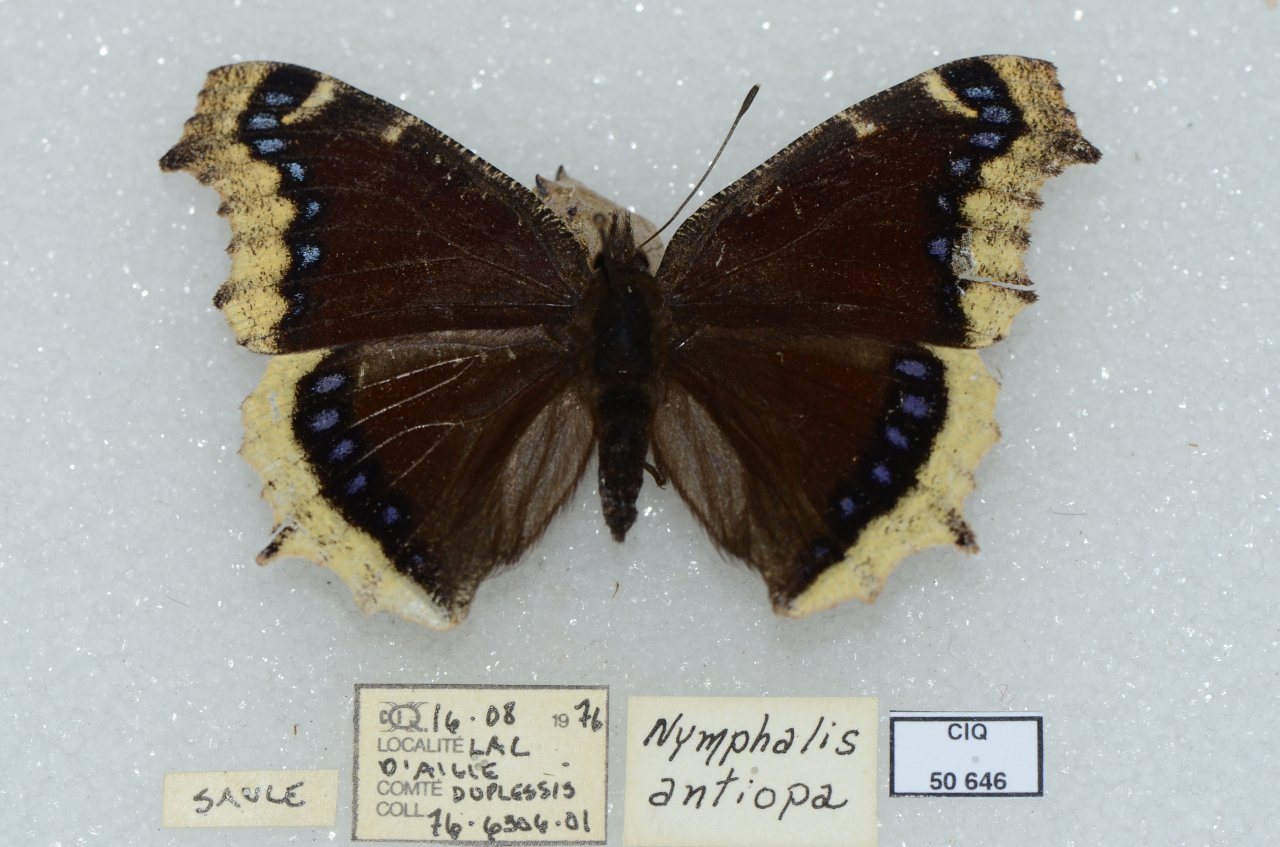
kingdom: Animalia
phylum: Arthropoda
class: Insecta
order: Lepidoptera
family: Nymphalidae
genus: Nymphalis
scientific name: Nymphalis antiopa
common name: Mourning Cloak
